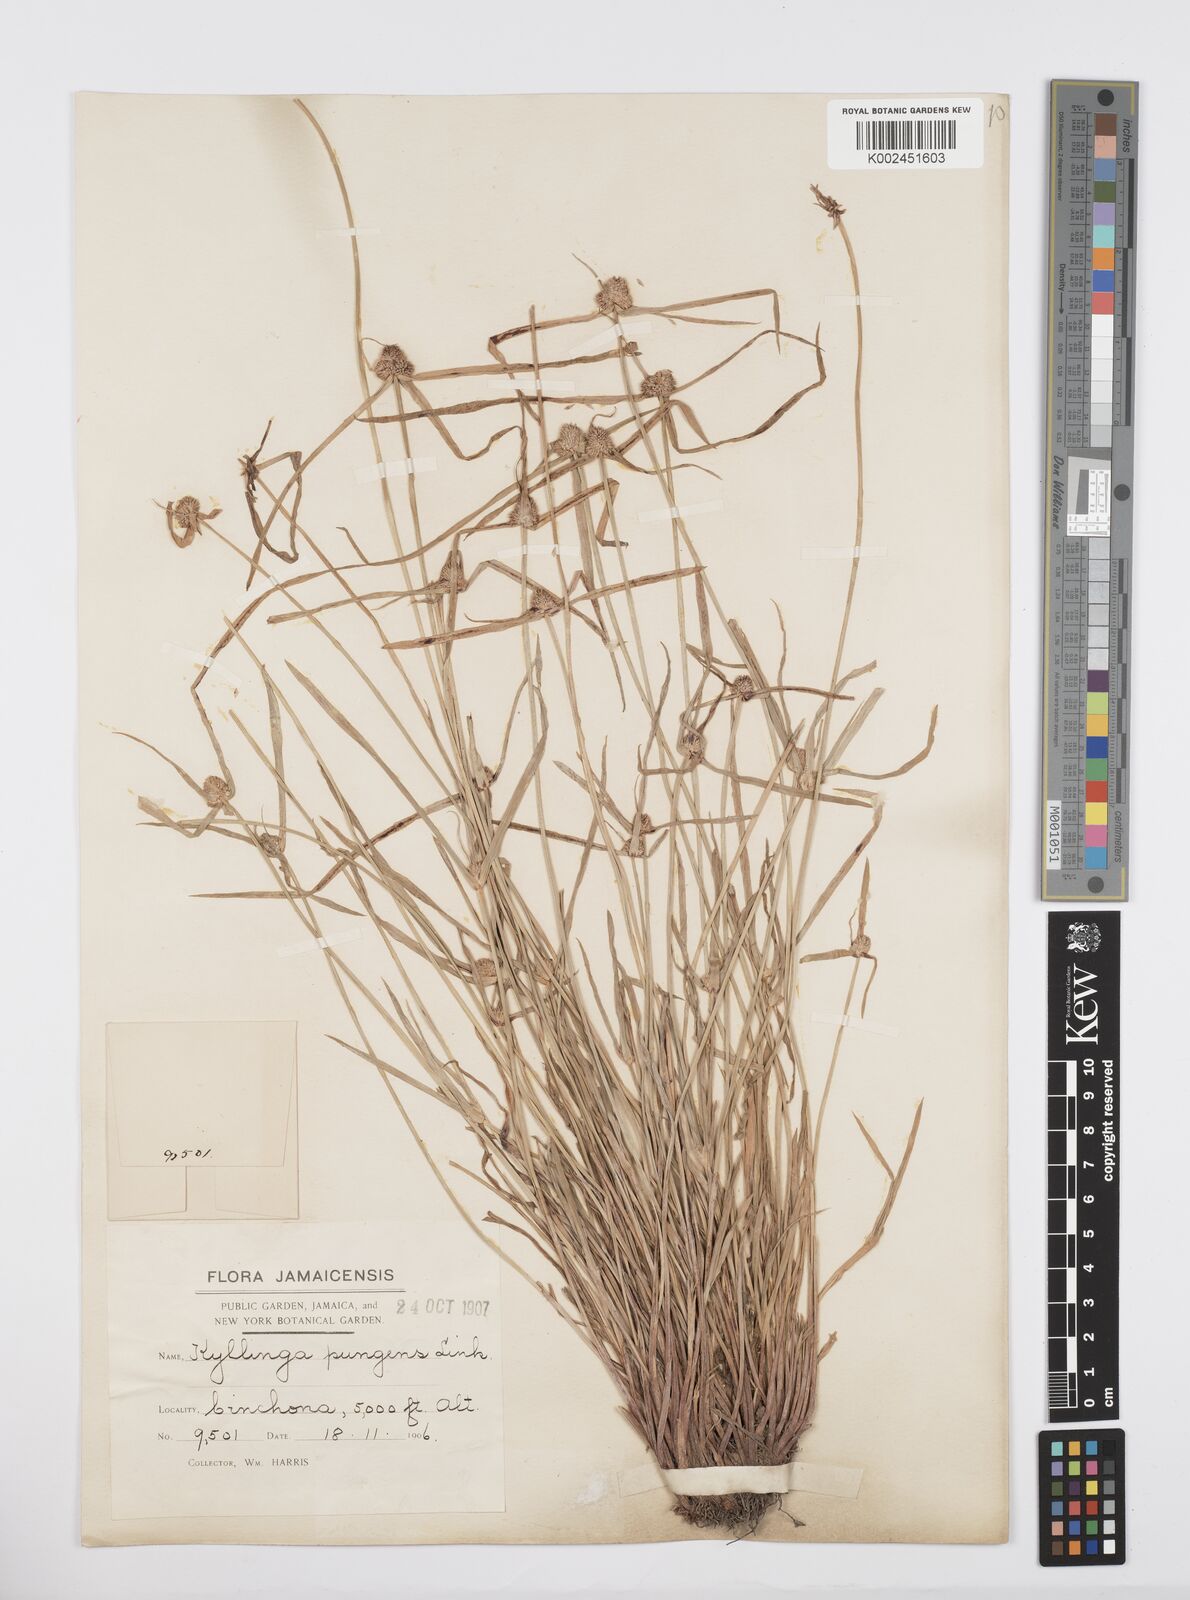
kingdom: Plantae
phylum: Tracheophyta
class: Liliopsida
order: Poales
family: Cyperaceae
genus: Cyperus
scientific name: Cyperus
